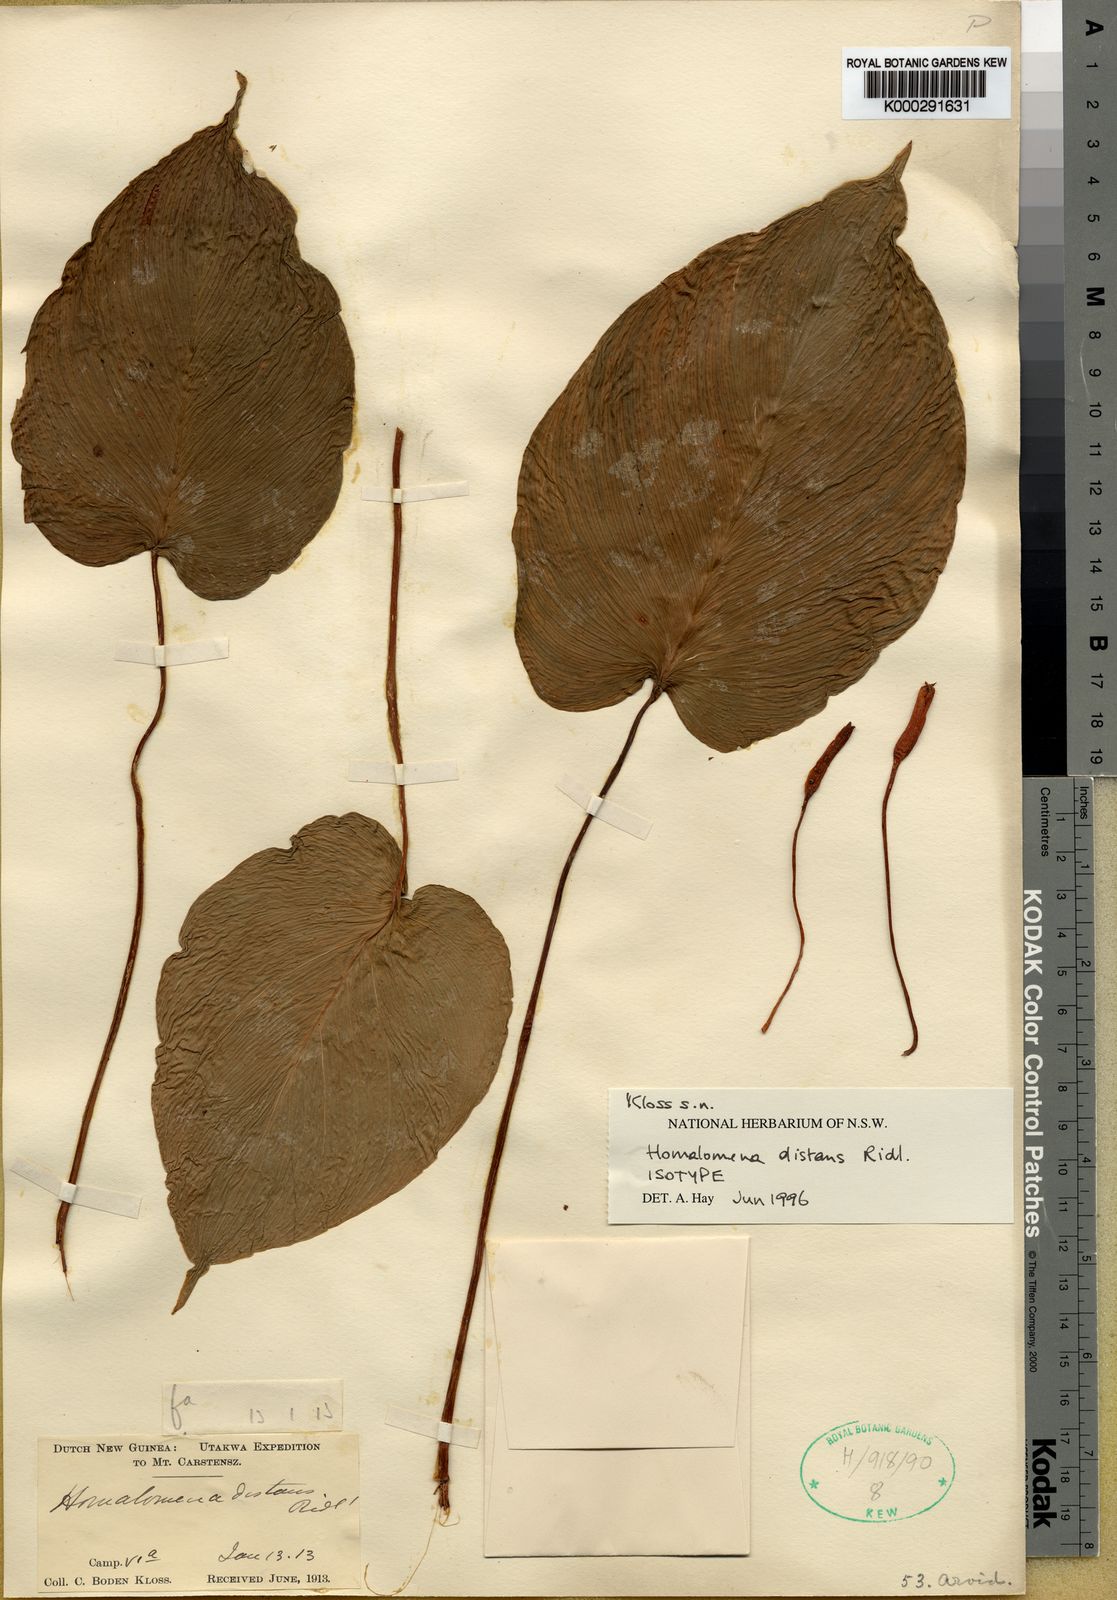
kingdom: Plantae
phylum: Tracheophyta
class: Liliopsida
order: Alismatales
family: Araceae
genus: Homalomena
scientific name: Homalomena
